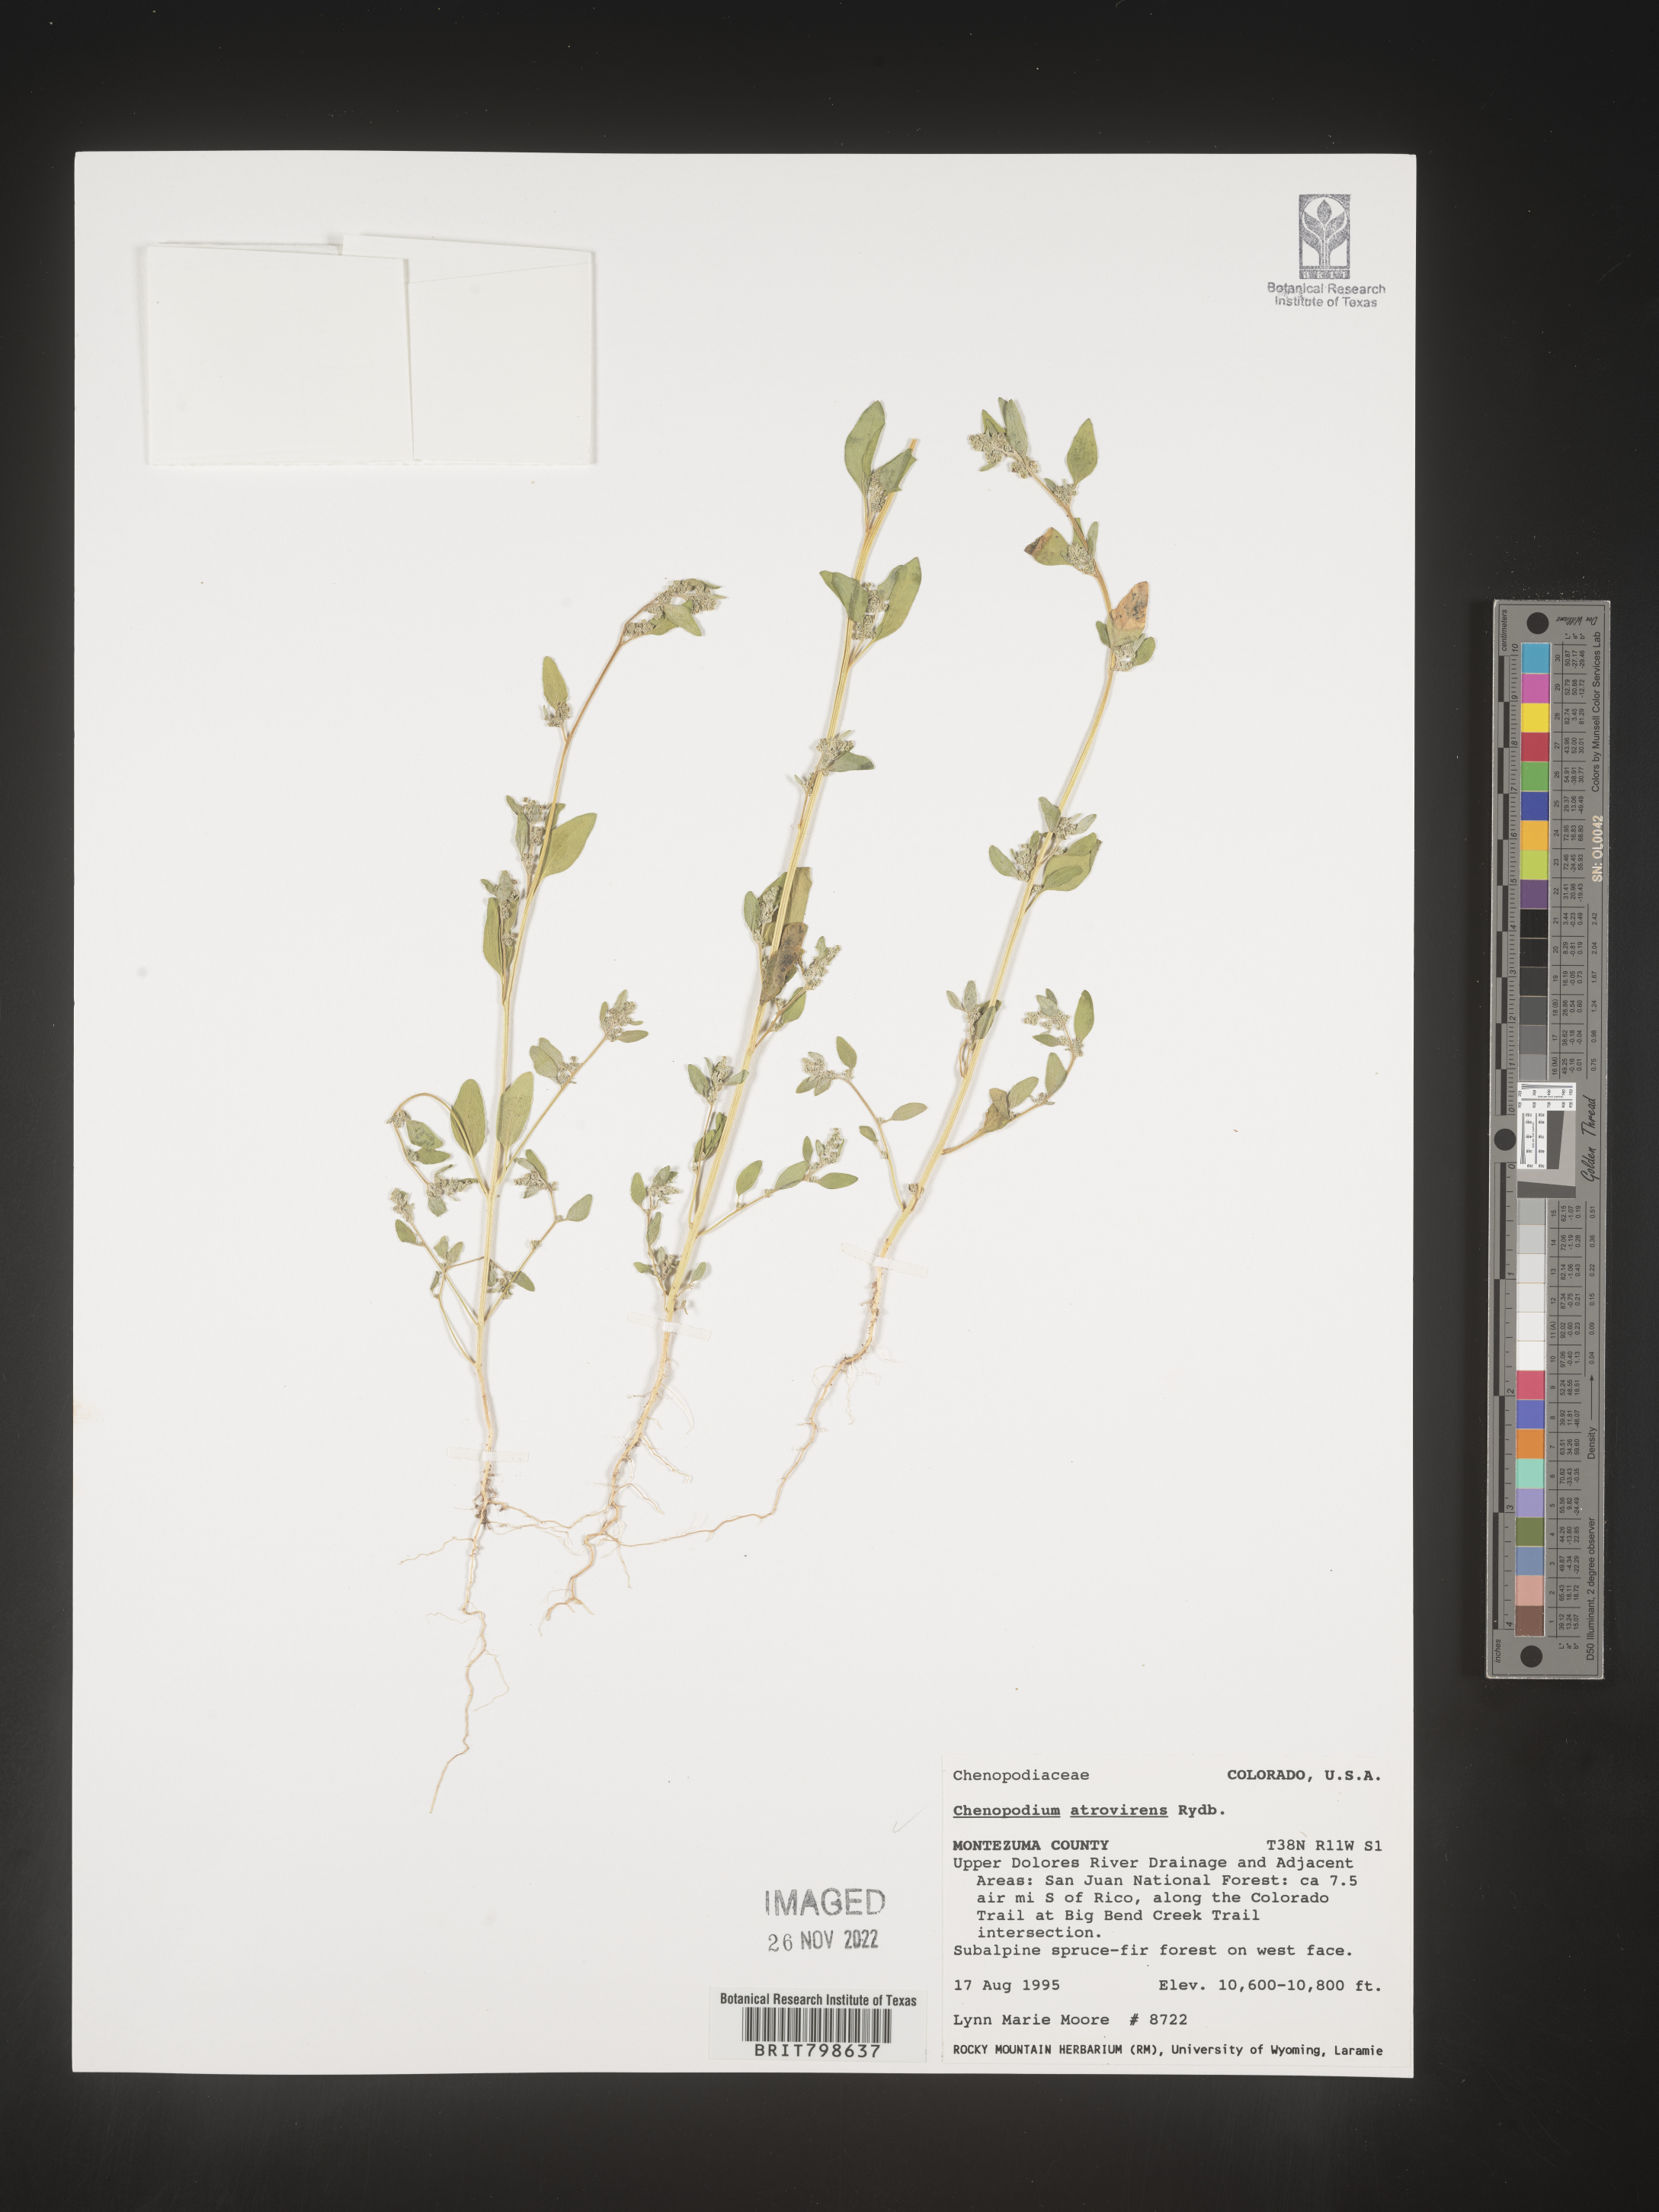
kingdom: Plantae
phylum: Tracheophyta
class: Magnoliopsida
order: Caryophyllales
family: Amaranthaceae
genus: Chenopodium
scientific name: Chenopodium atrovirens
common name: Dark goosefoot
